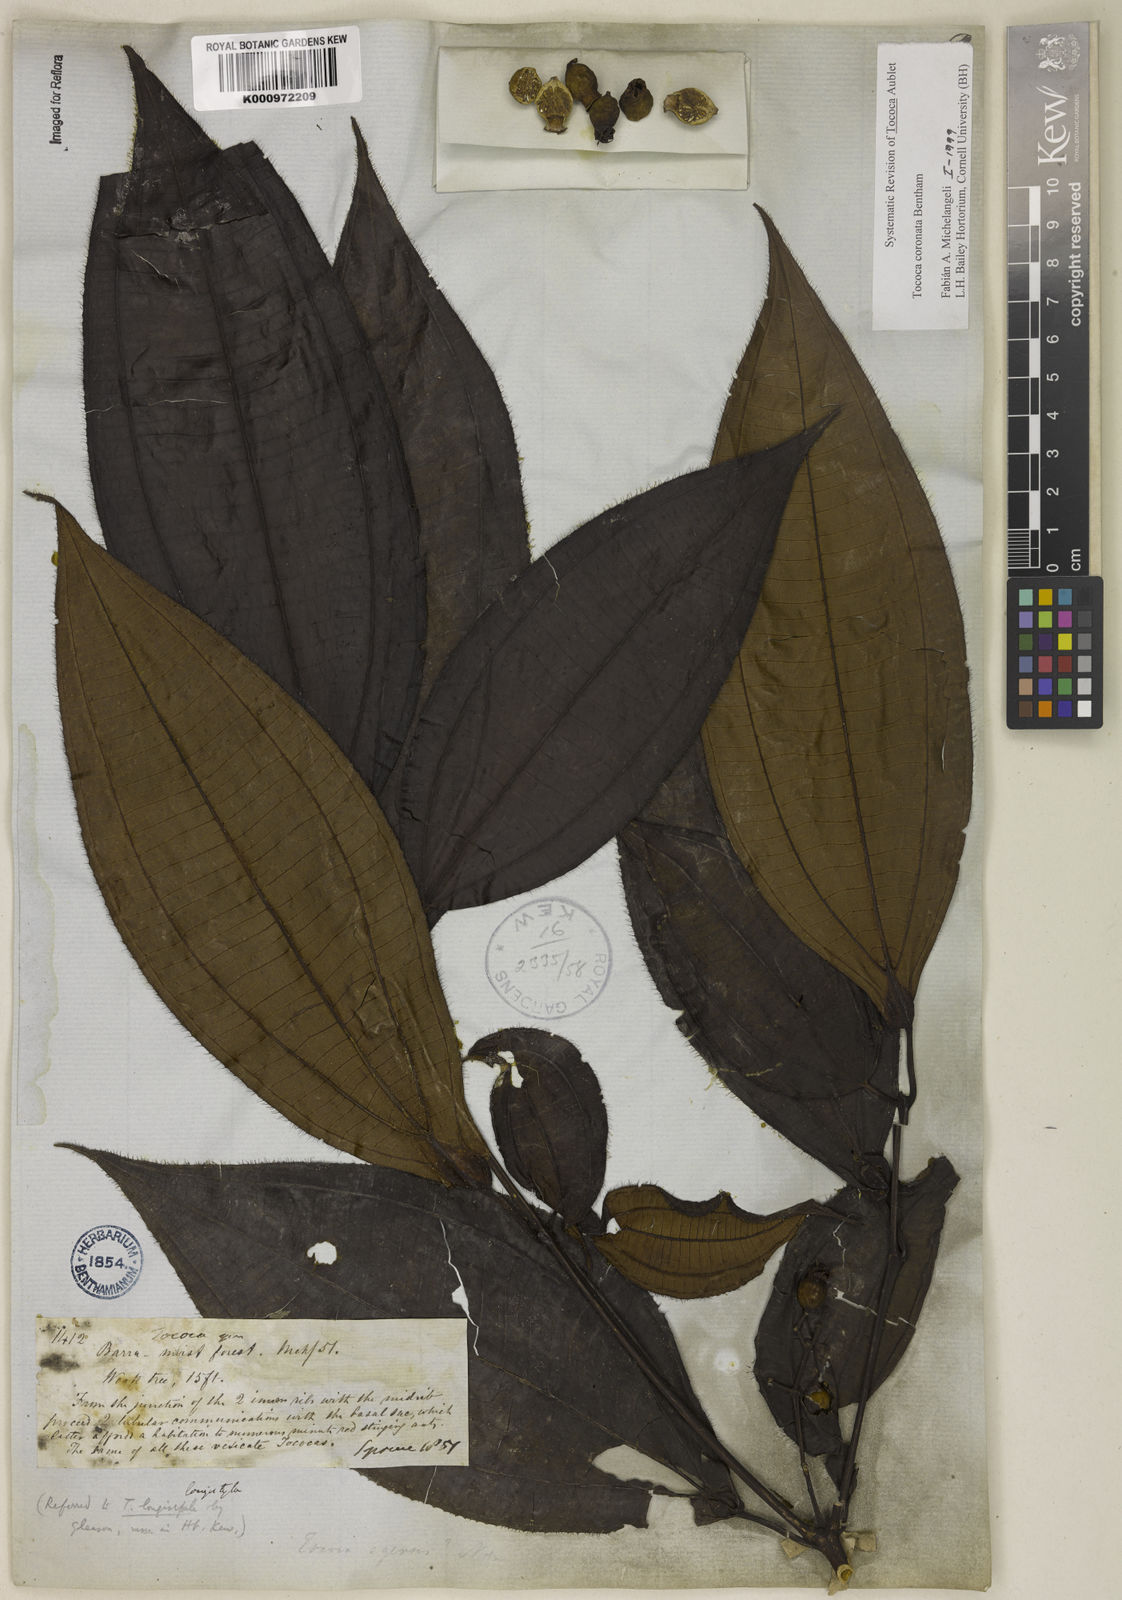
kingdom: Plantae
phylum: Tracheophyta
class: Magnoliopsida
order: Myrtales
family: Melastomataceae
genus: Miconia
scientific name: Miconia tococoronata
